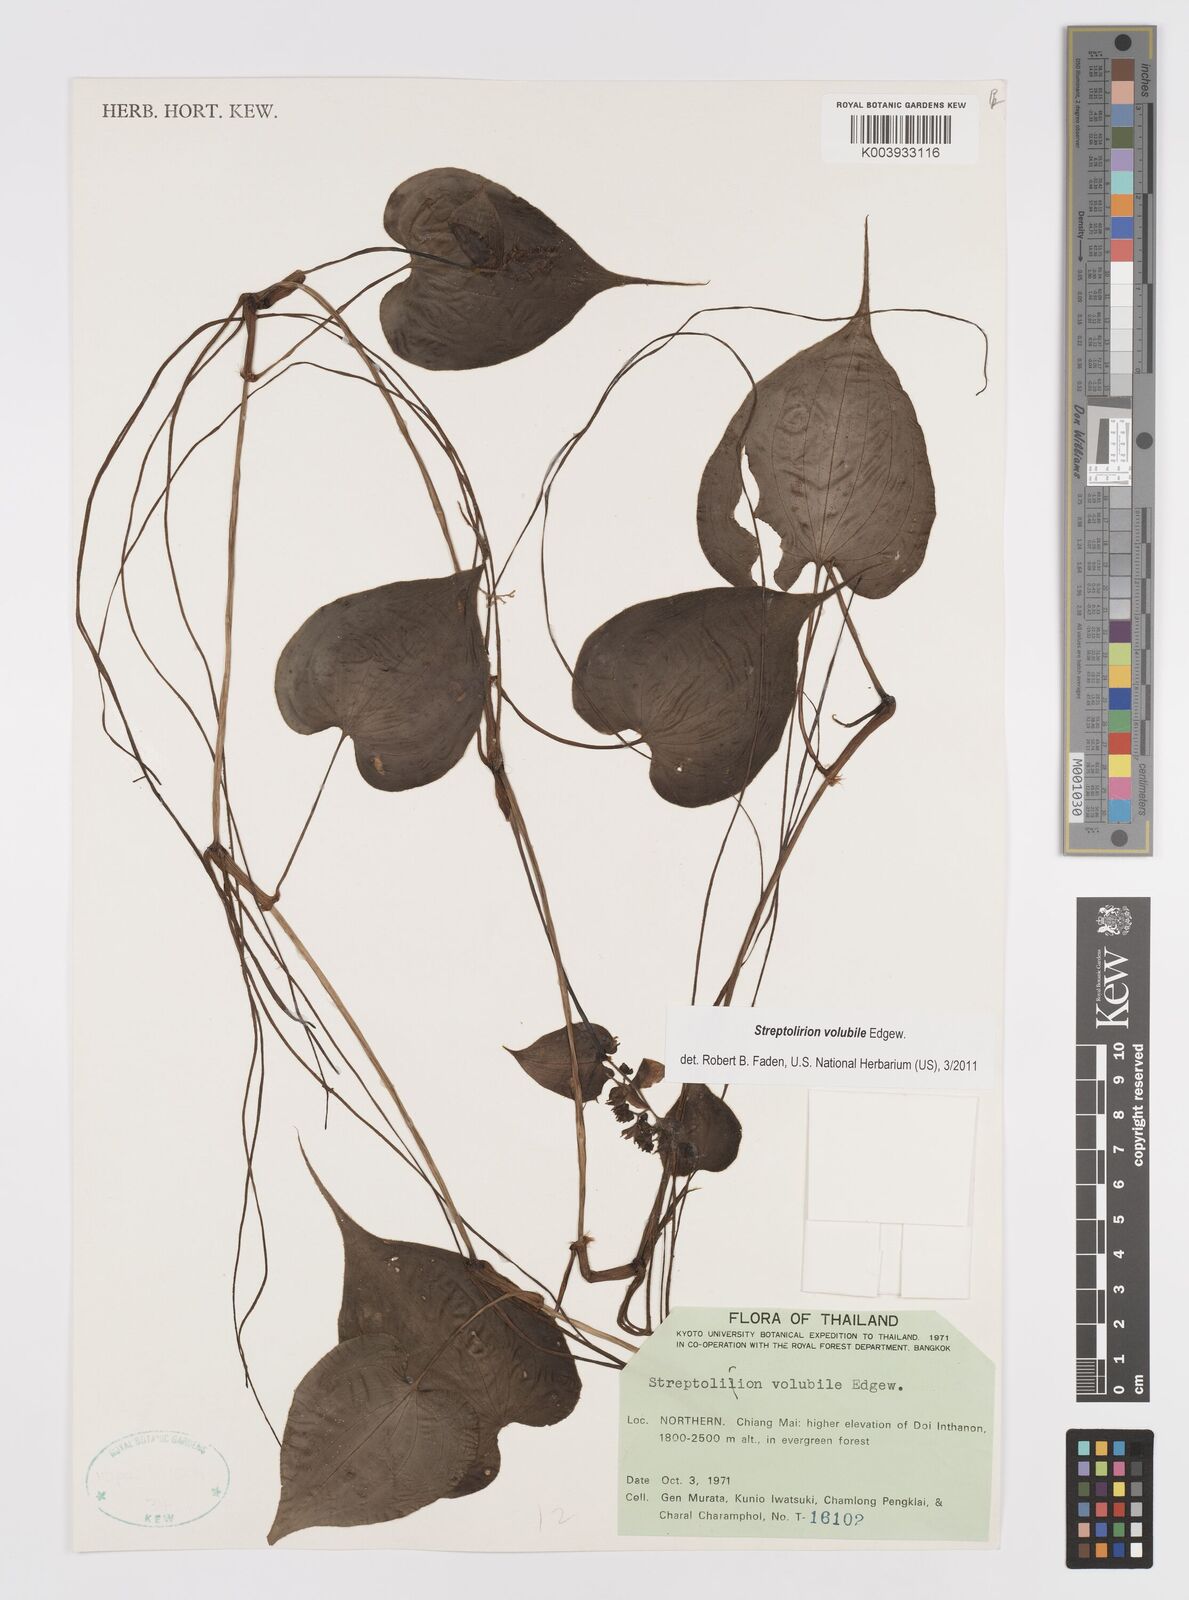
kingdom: Plantae
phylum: Tracheophyta
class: Liliopsida
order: Commelinales
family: Commelinaceae
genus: Streptolirion
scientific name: Streptolirion volubile
